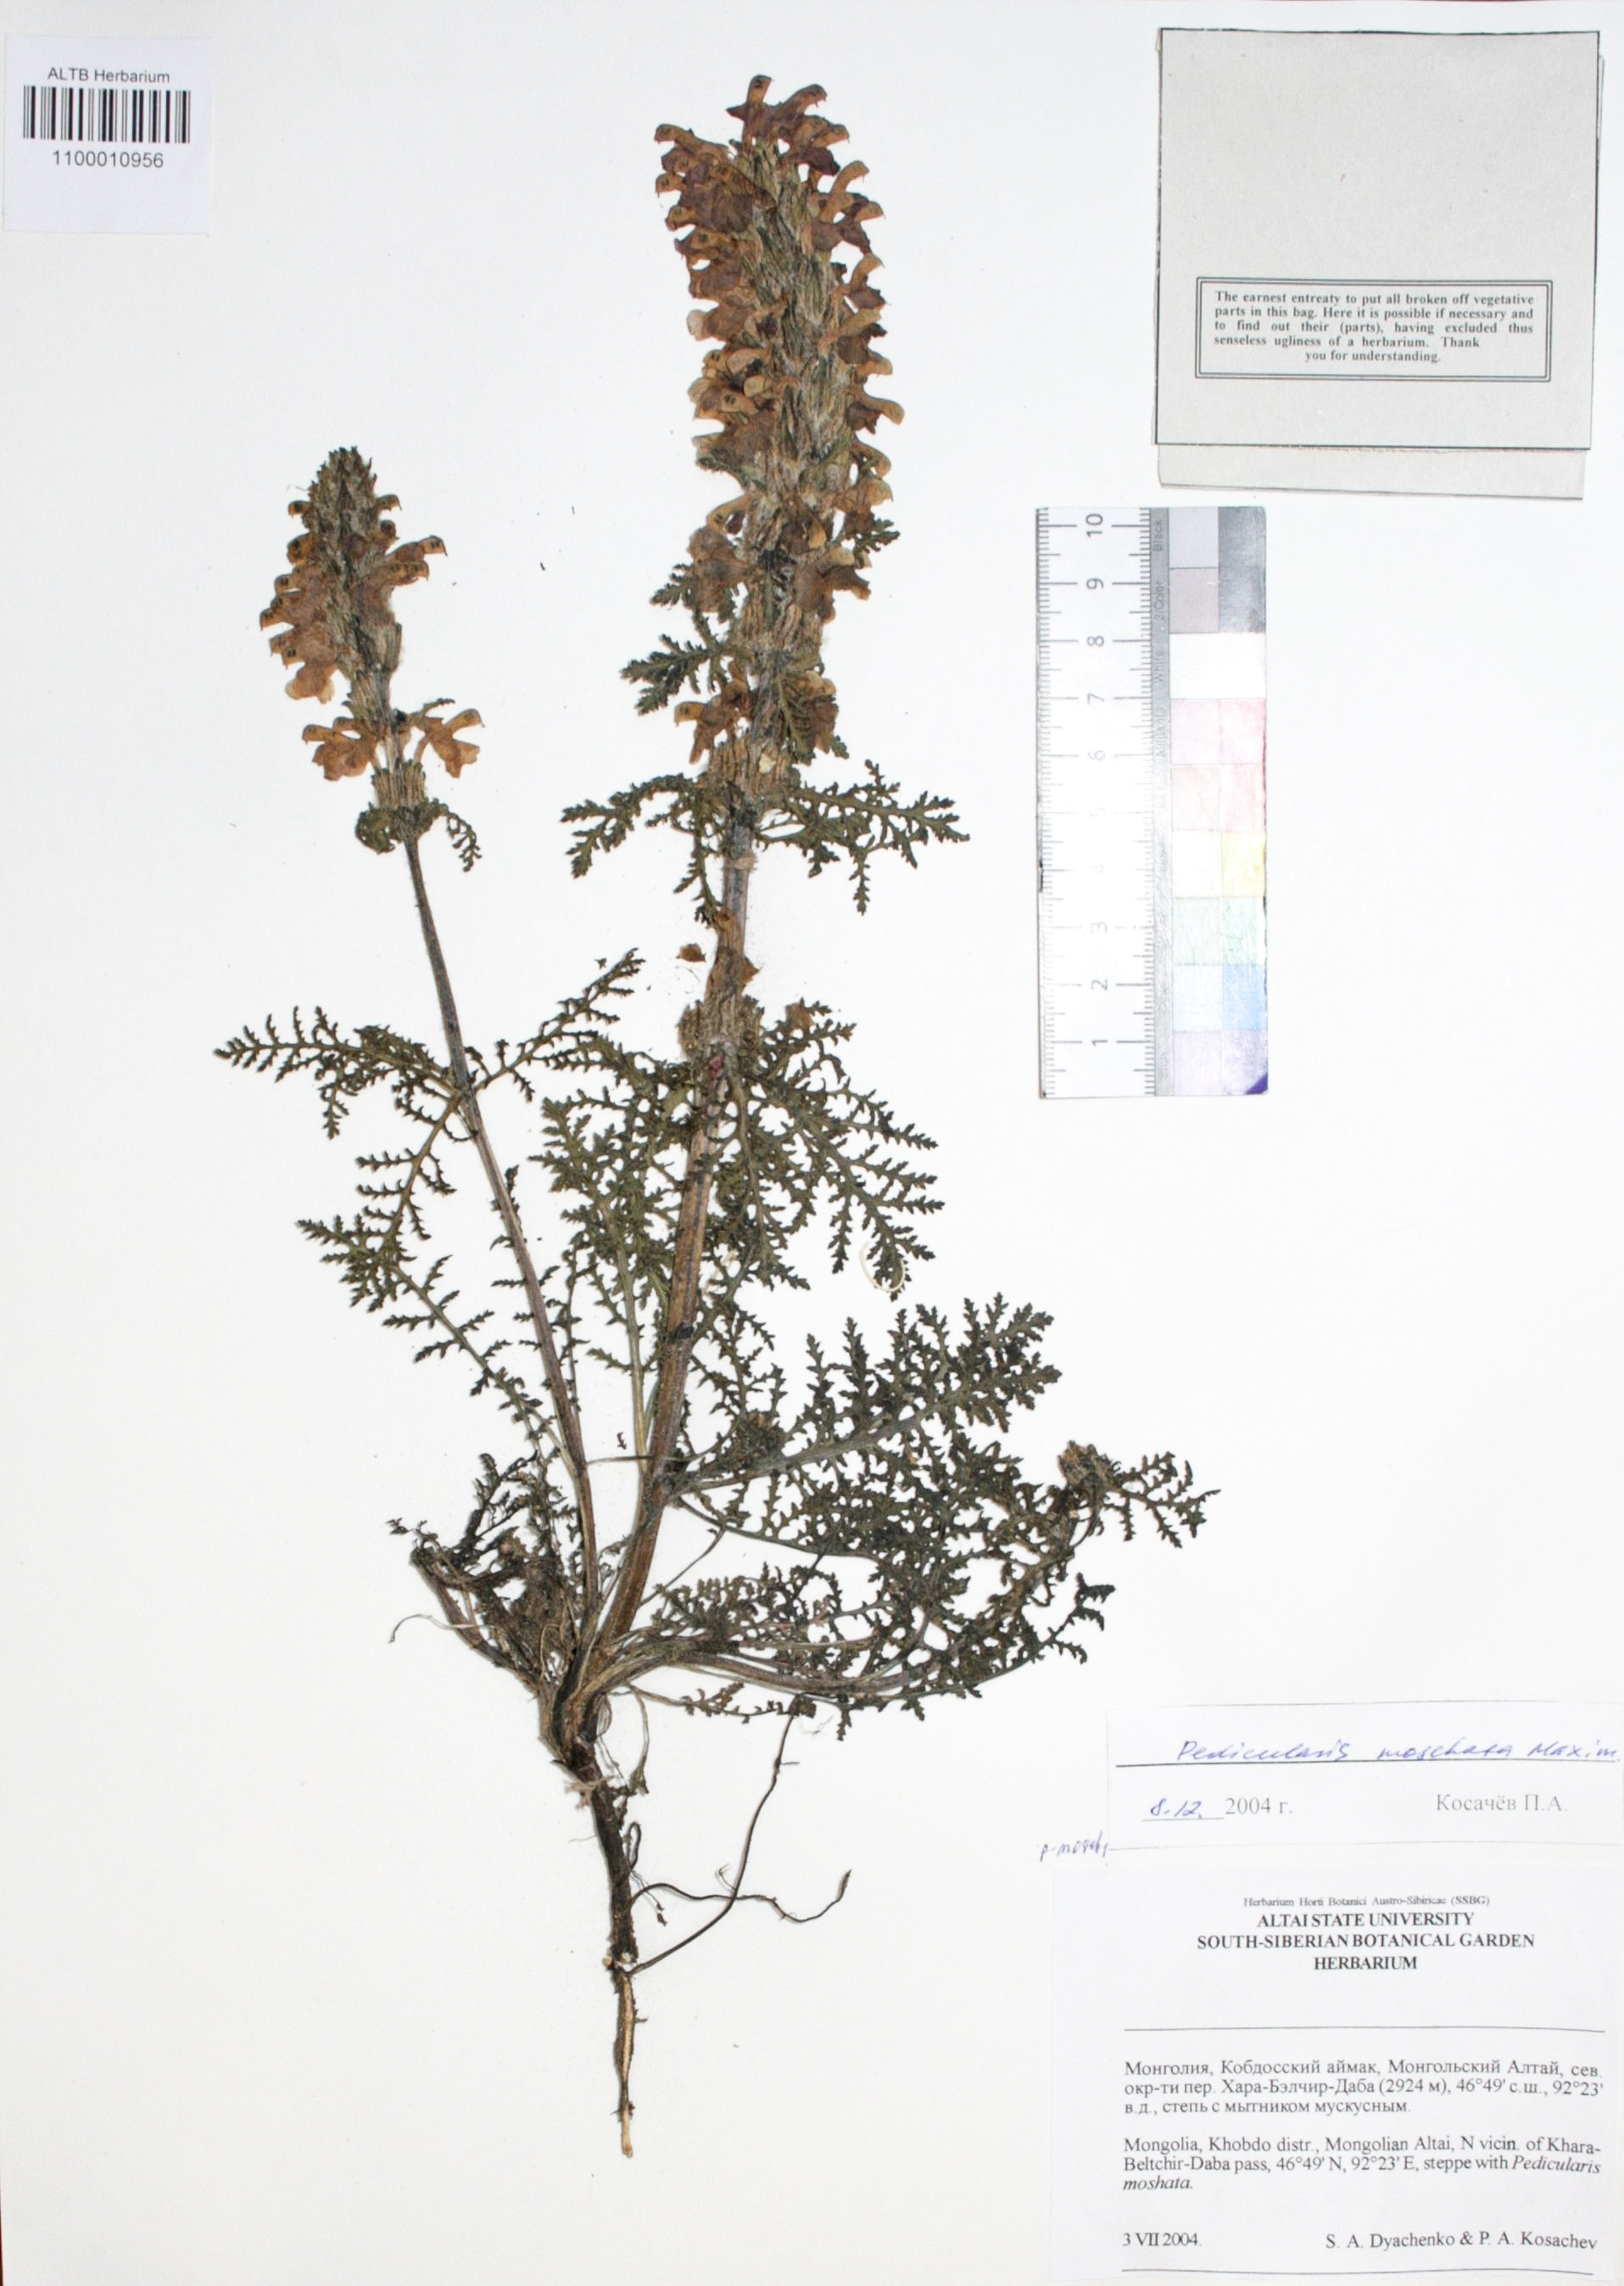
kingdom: Plantae
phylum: Tracheophyta
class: Magnoliopsida
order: Lamiales
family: Orobanchaceae
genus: Pedicularis
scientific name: Pedicularis moschata
